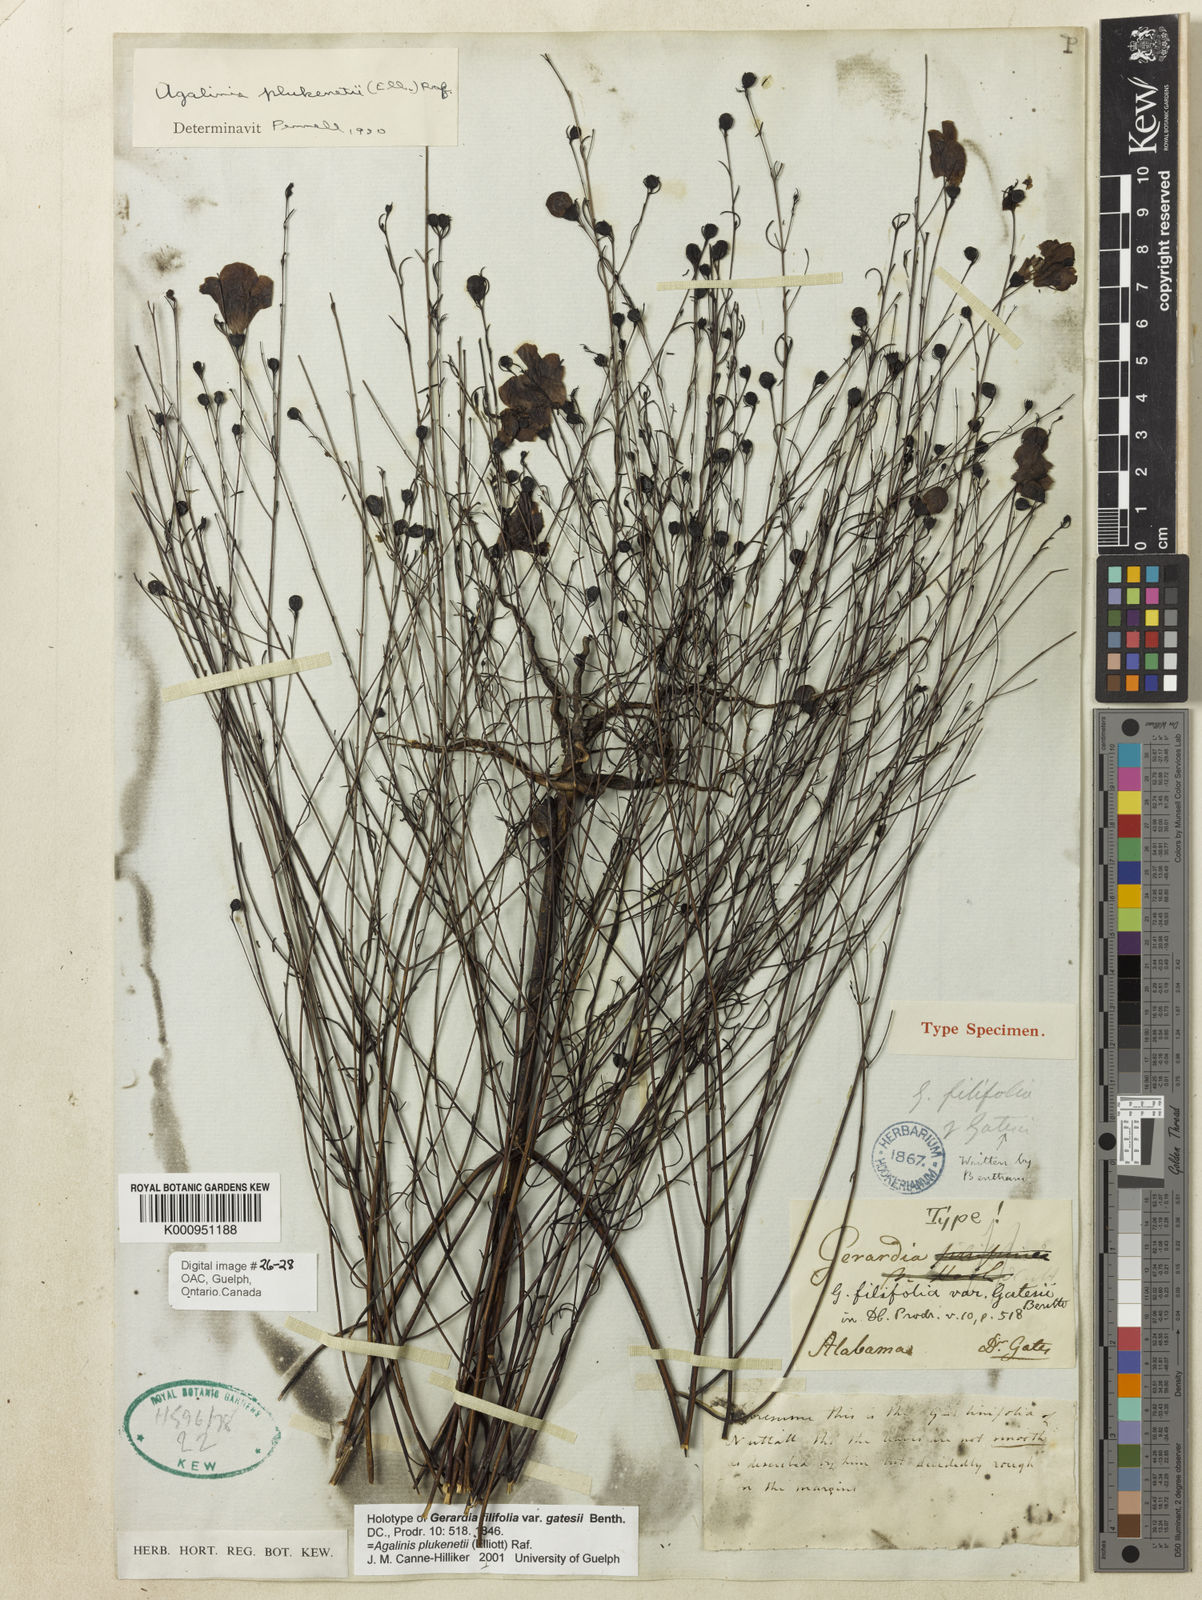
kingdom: Plantae
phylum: Tracheophyta
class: Magnoliopsida
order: Lamiales
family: Orobanchaceae
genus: Agalinis
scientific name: Agalinis plukenetii
